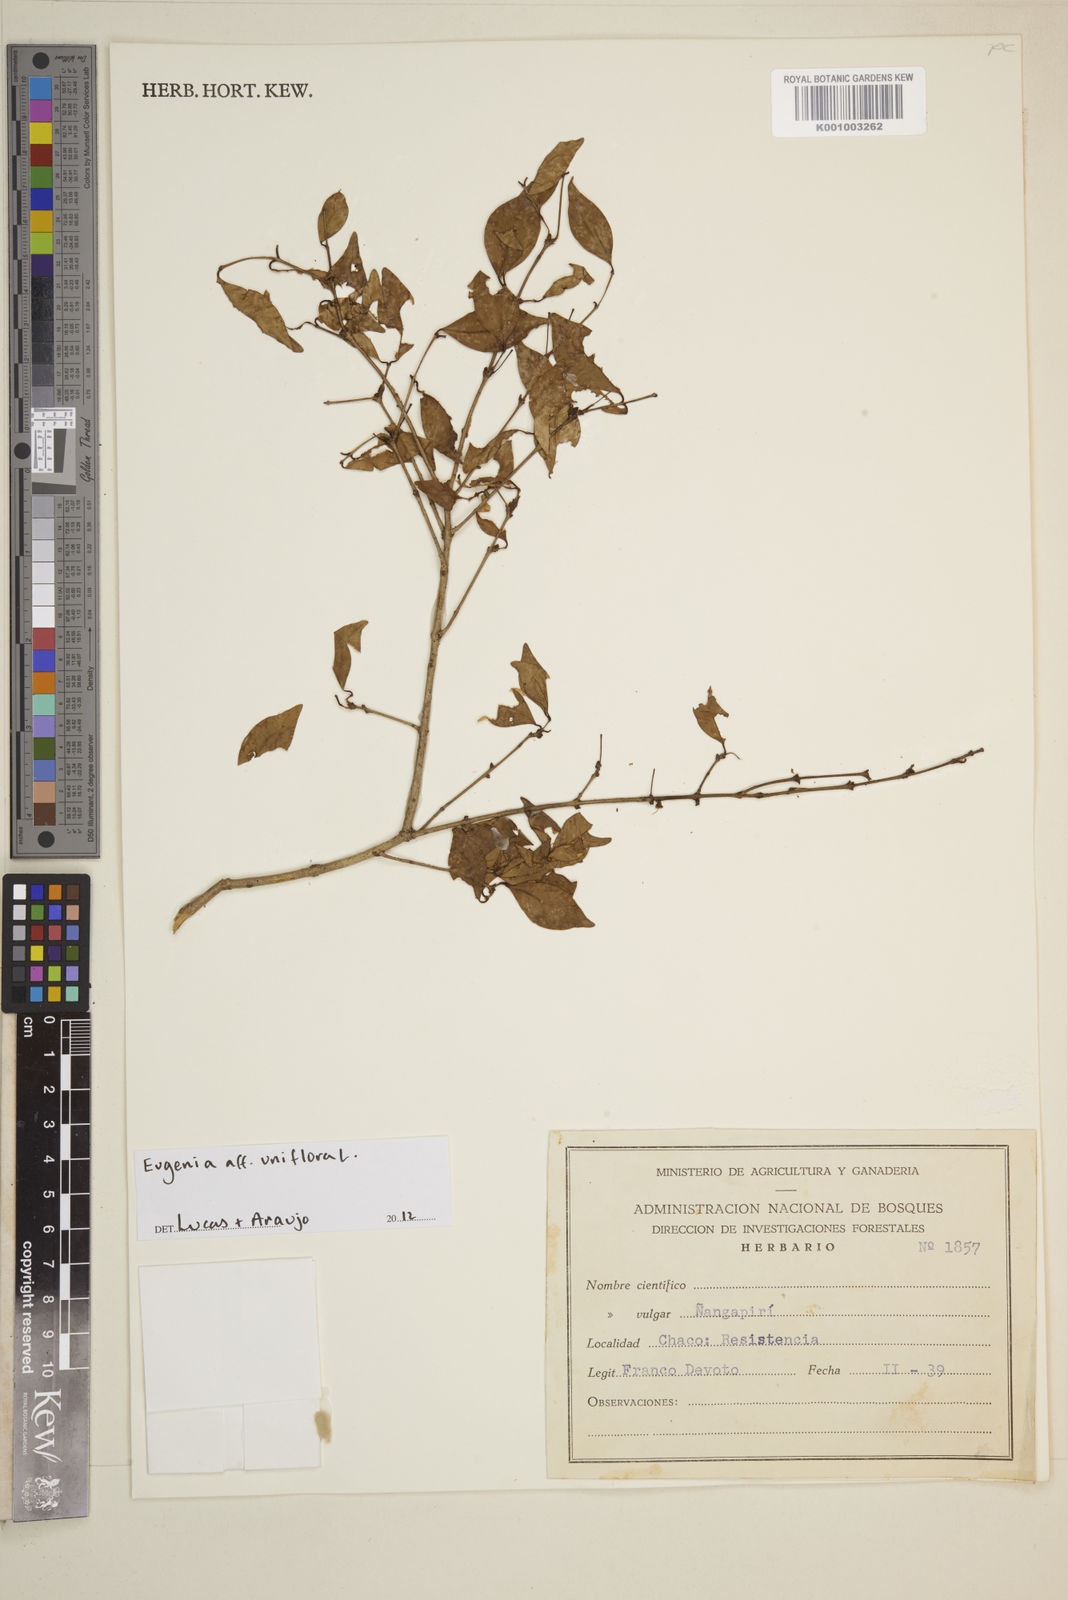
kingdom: Plantae
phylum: Tracheophyta
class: Magnoliopsida
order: Myrtales
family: Myrtaceae
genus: Eugenia
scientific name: Eugenia uniflora
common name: Surinam cherry
